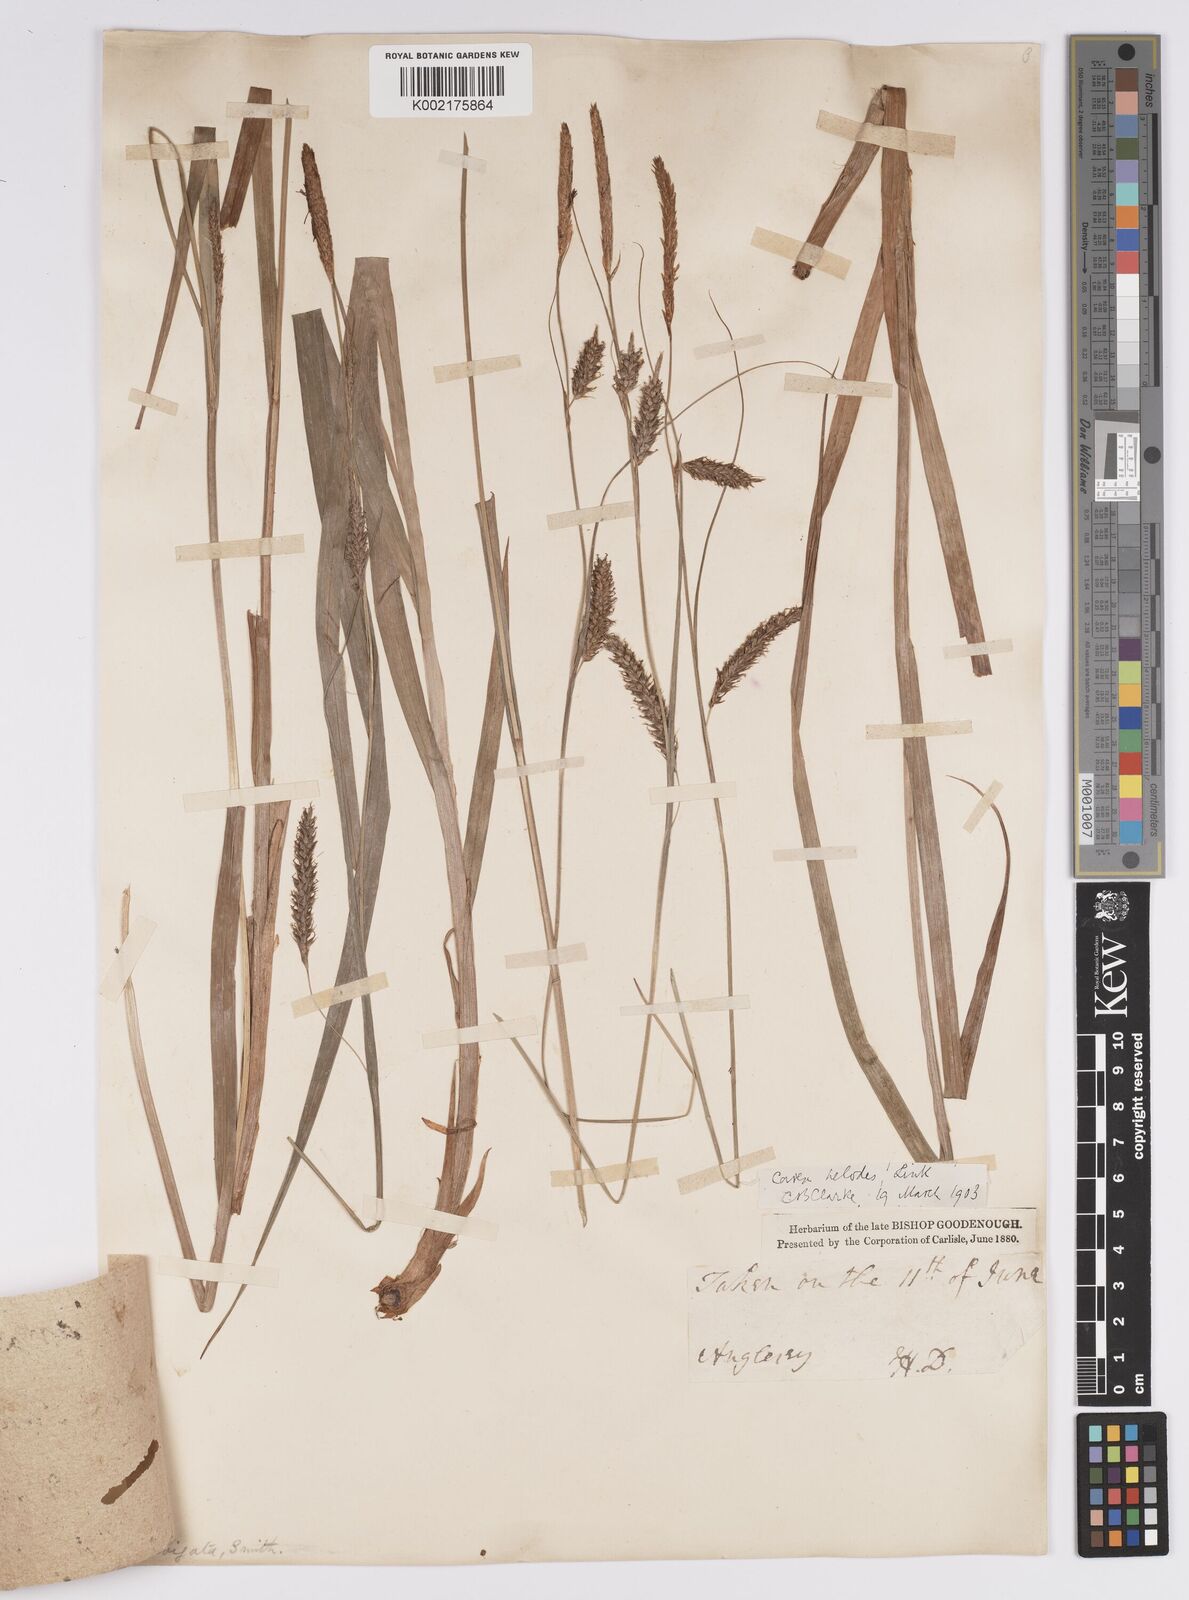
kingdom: Plantae
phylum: Tracheophyta
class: Liliopsida
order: Poales
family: Cyperaceae
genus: Carex
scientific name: Carex laevigata
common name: Smooth-stalked sedge
